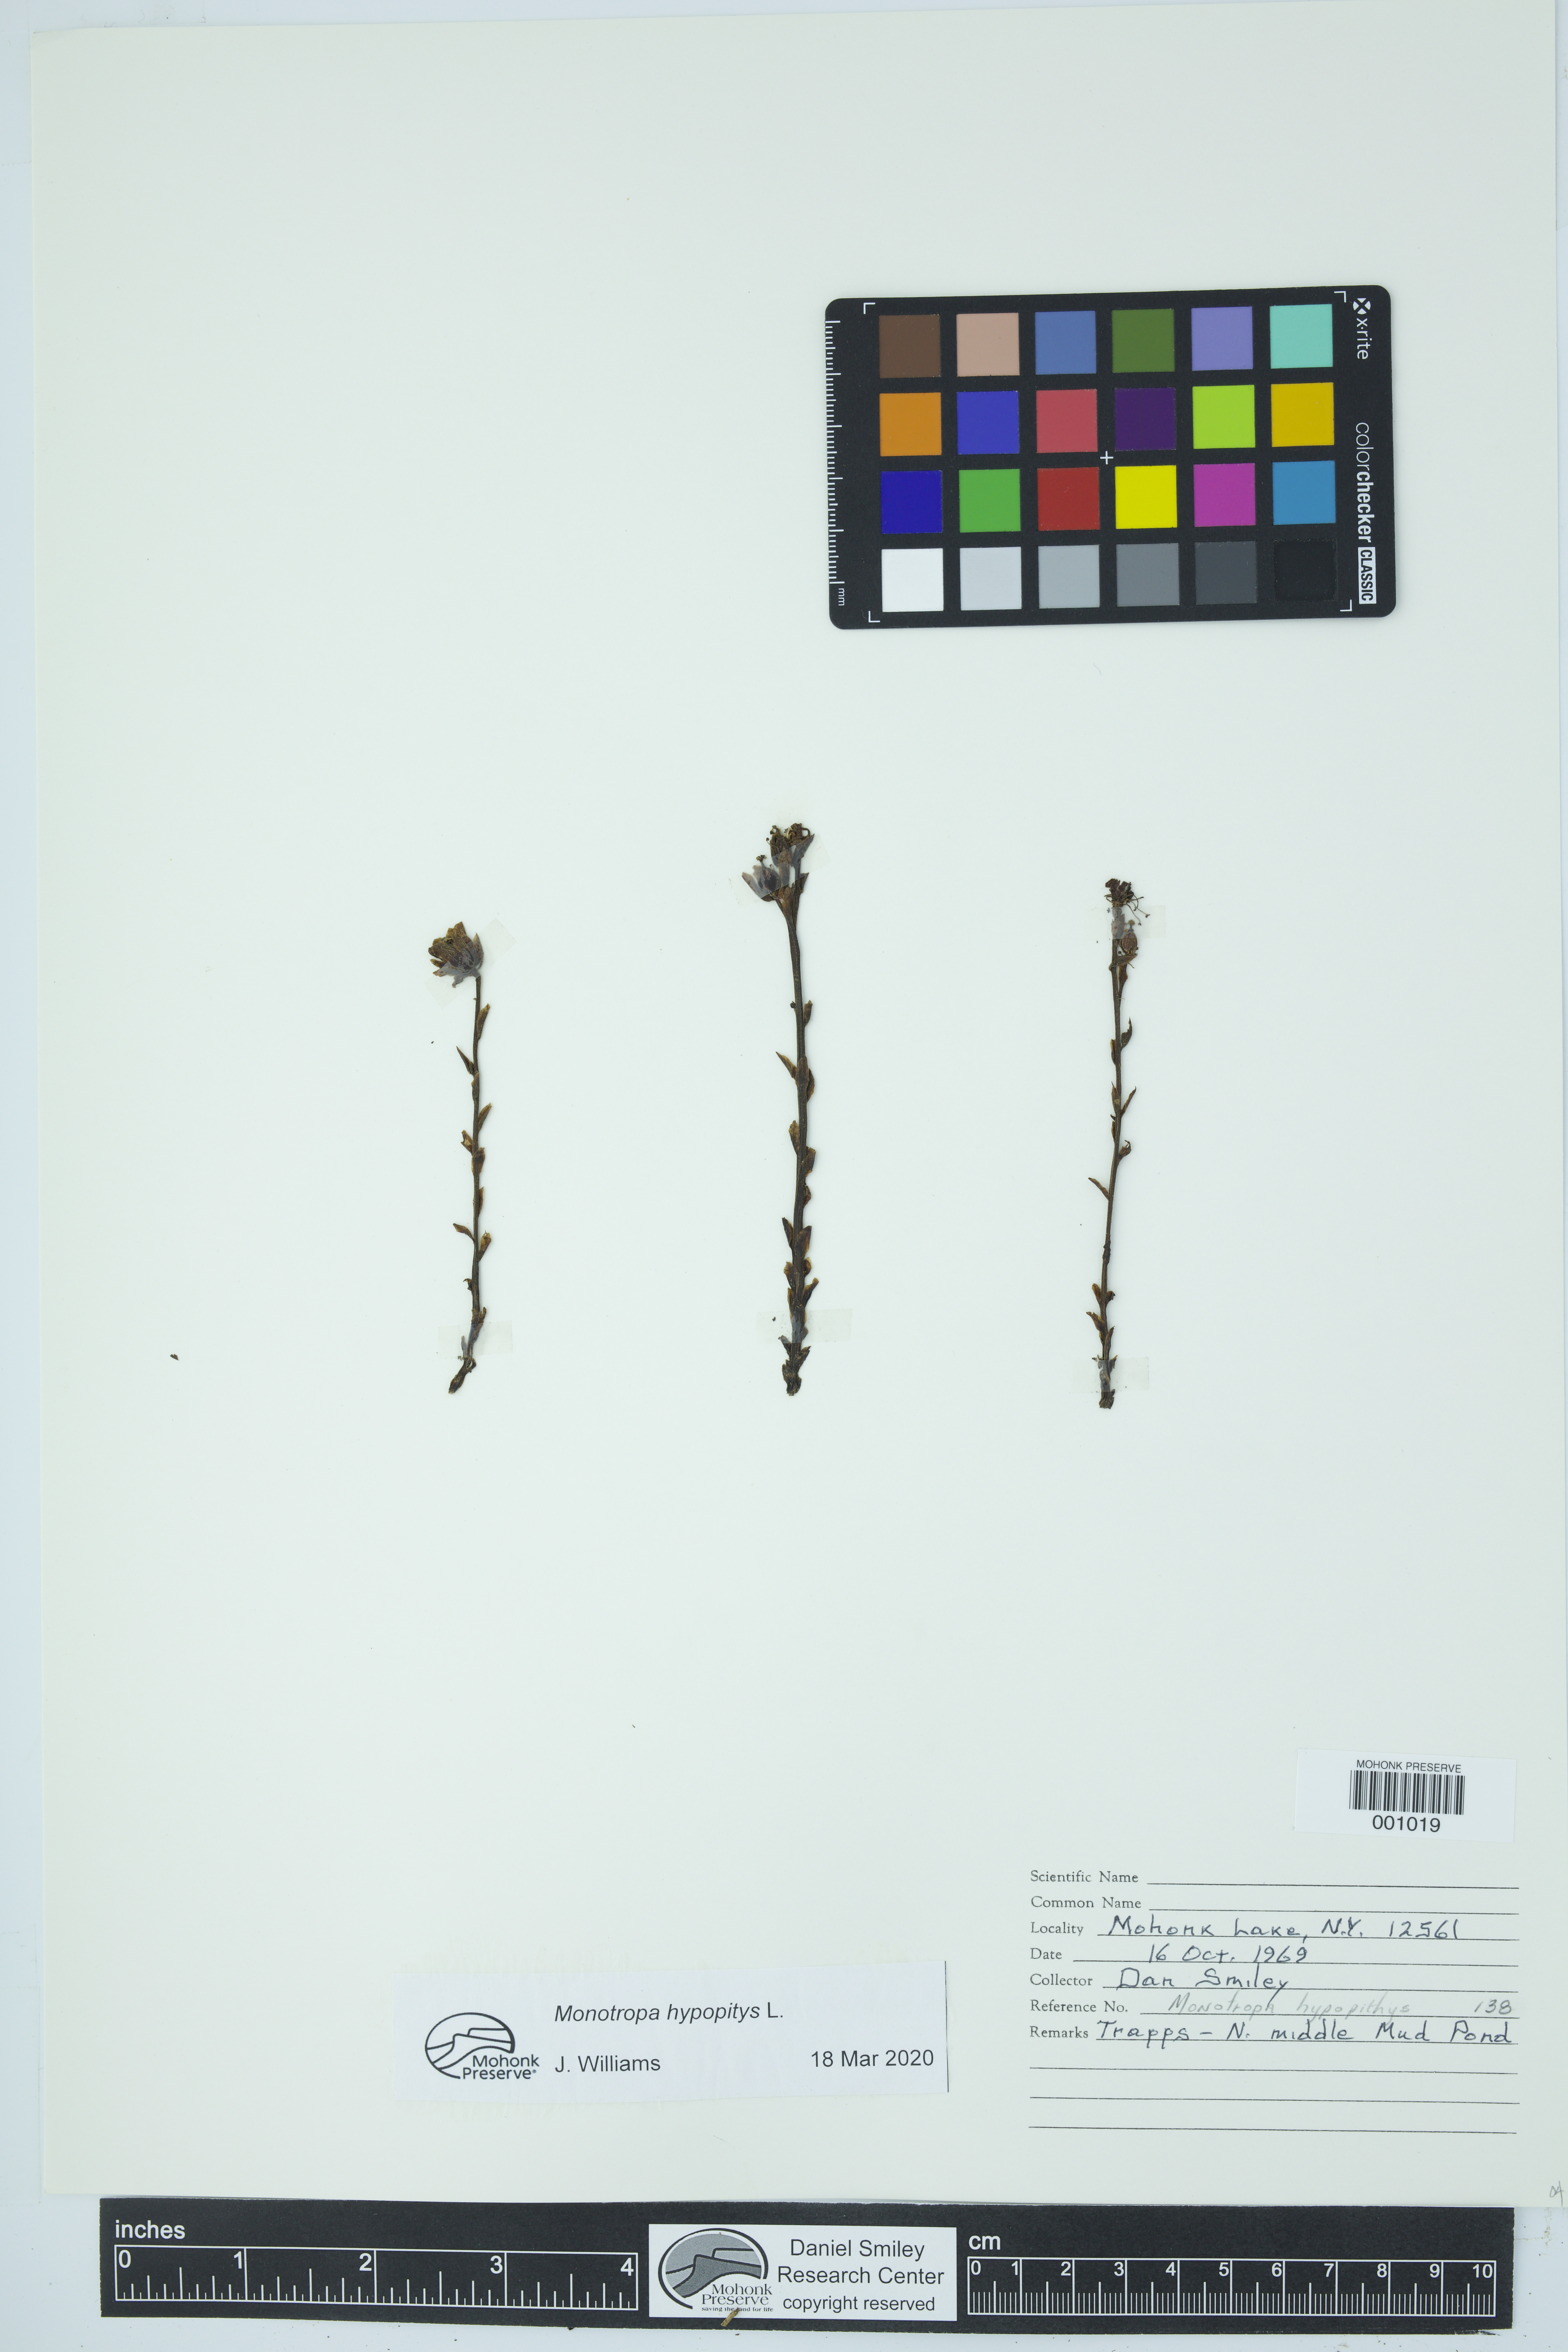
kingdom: Plantae
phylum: Tracheophyta
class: Magnoliopsida
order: Ericales
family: Ericaceae
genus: Hypopitys
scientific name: Hypopitys monotropa
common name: Yellow bird's-nest
